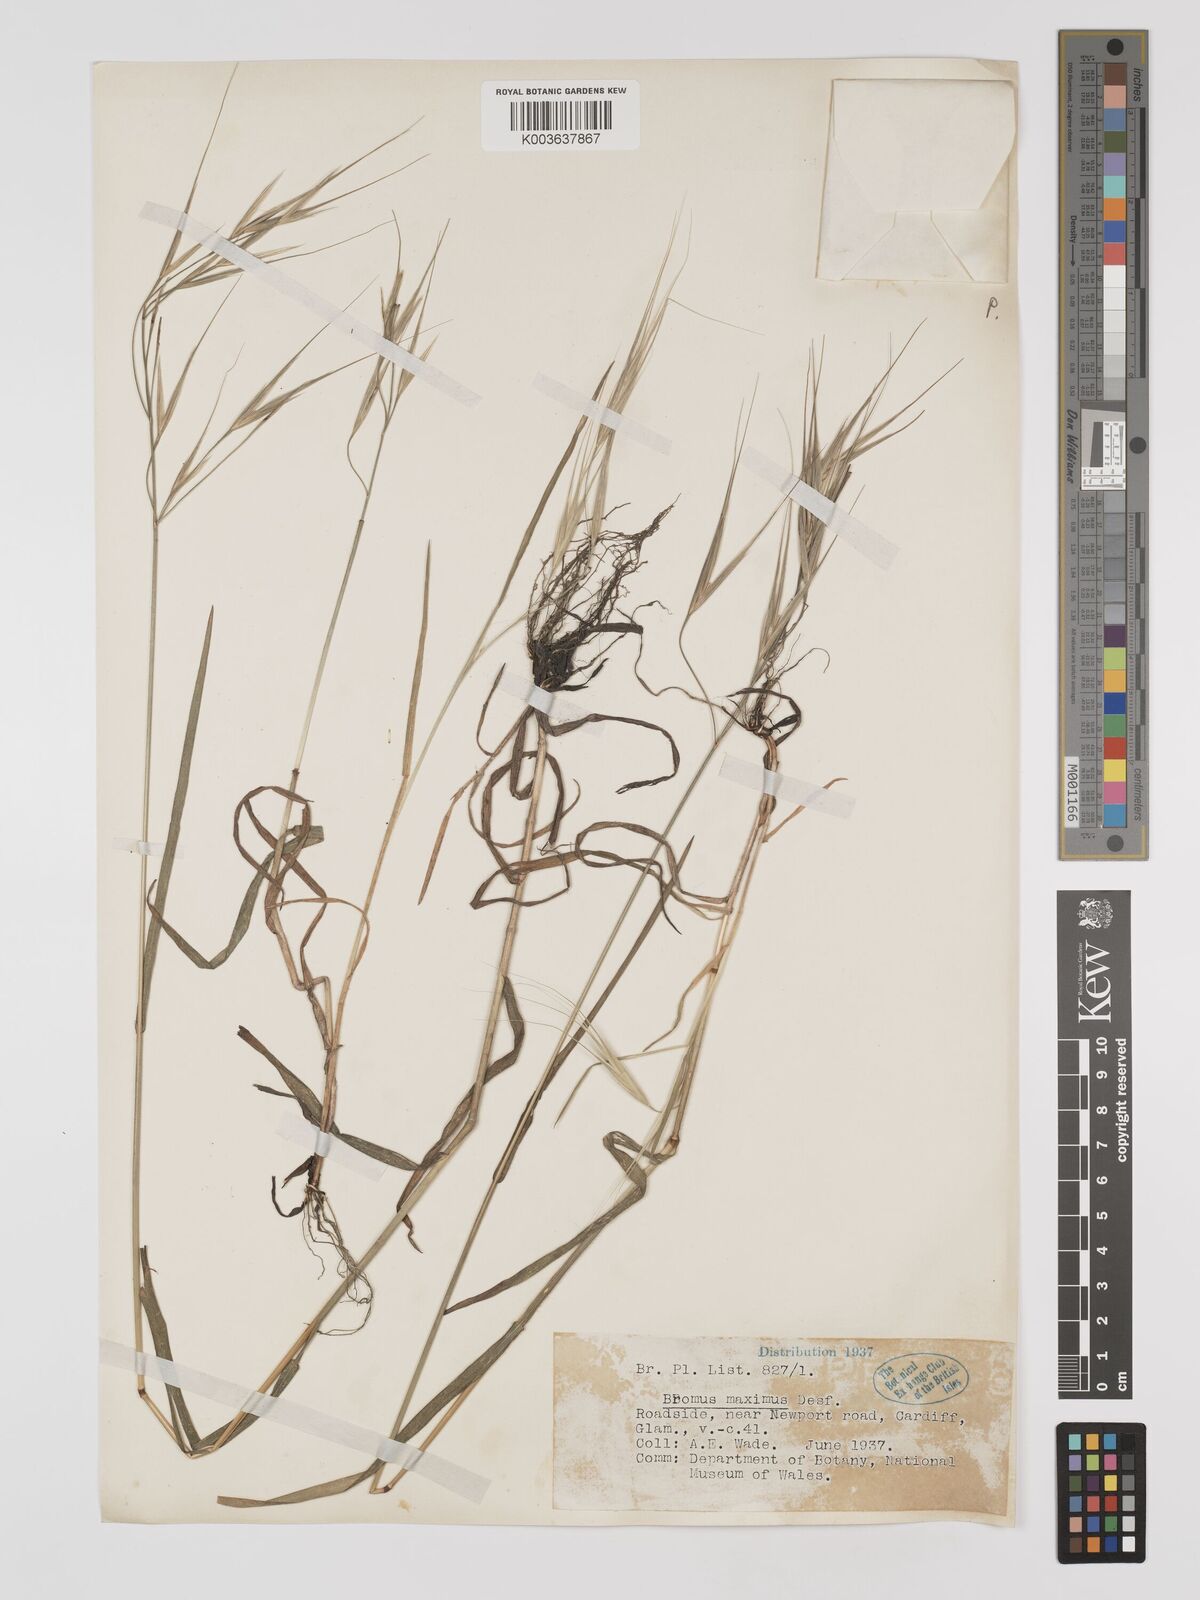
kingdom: Plantae
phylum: Tracheophyta
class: Liliopsida
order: Poales
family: Poaceae
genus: Bromus
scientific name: Bromus
